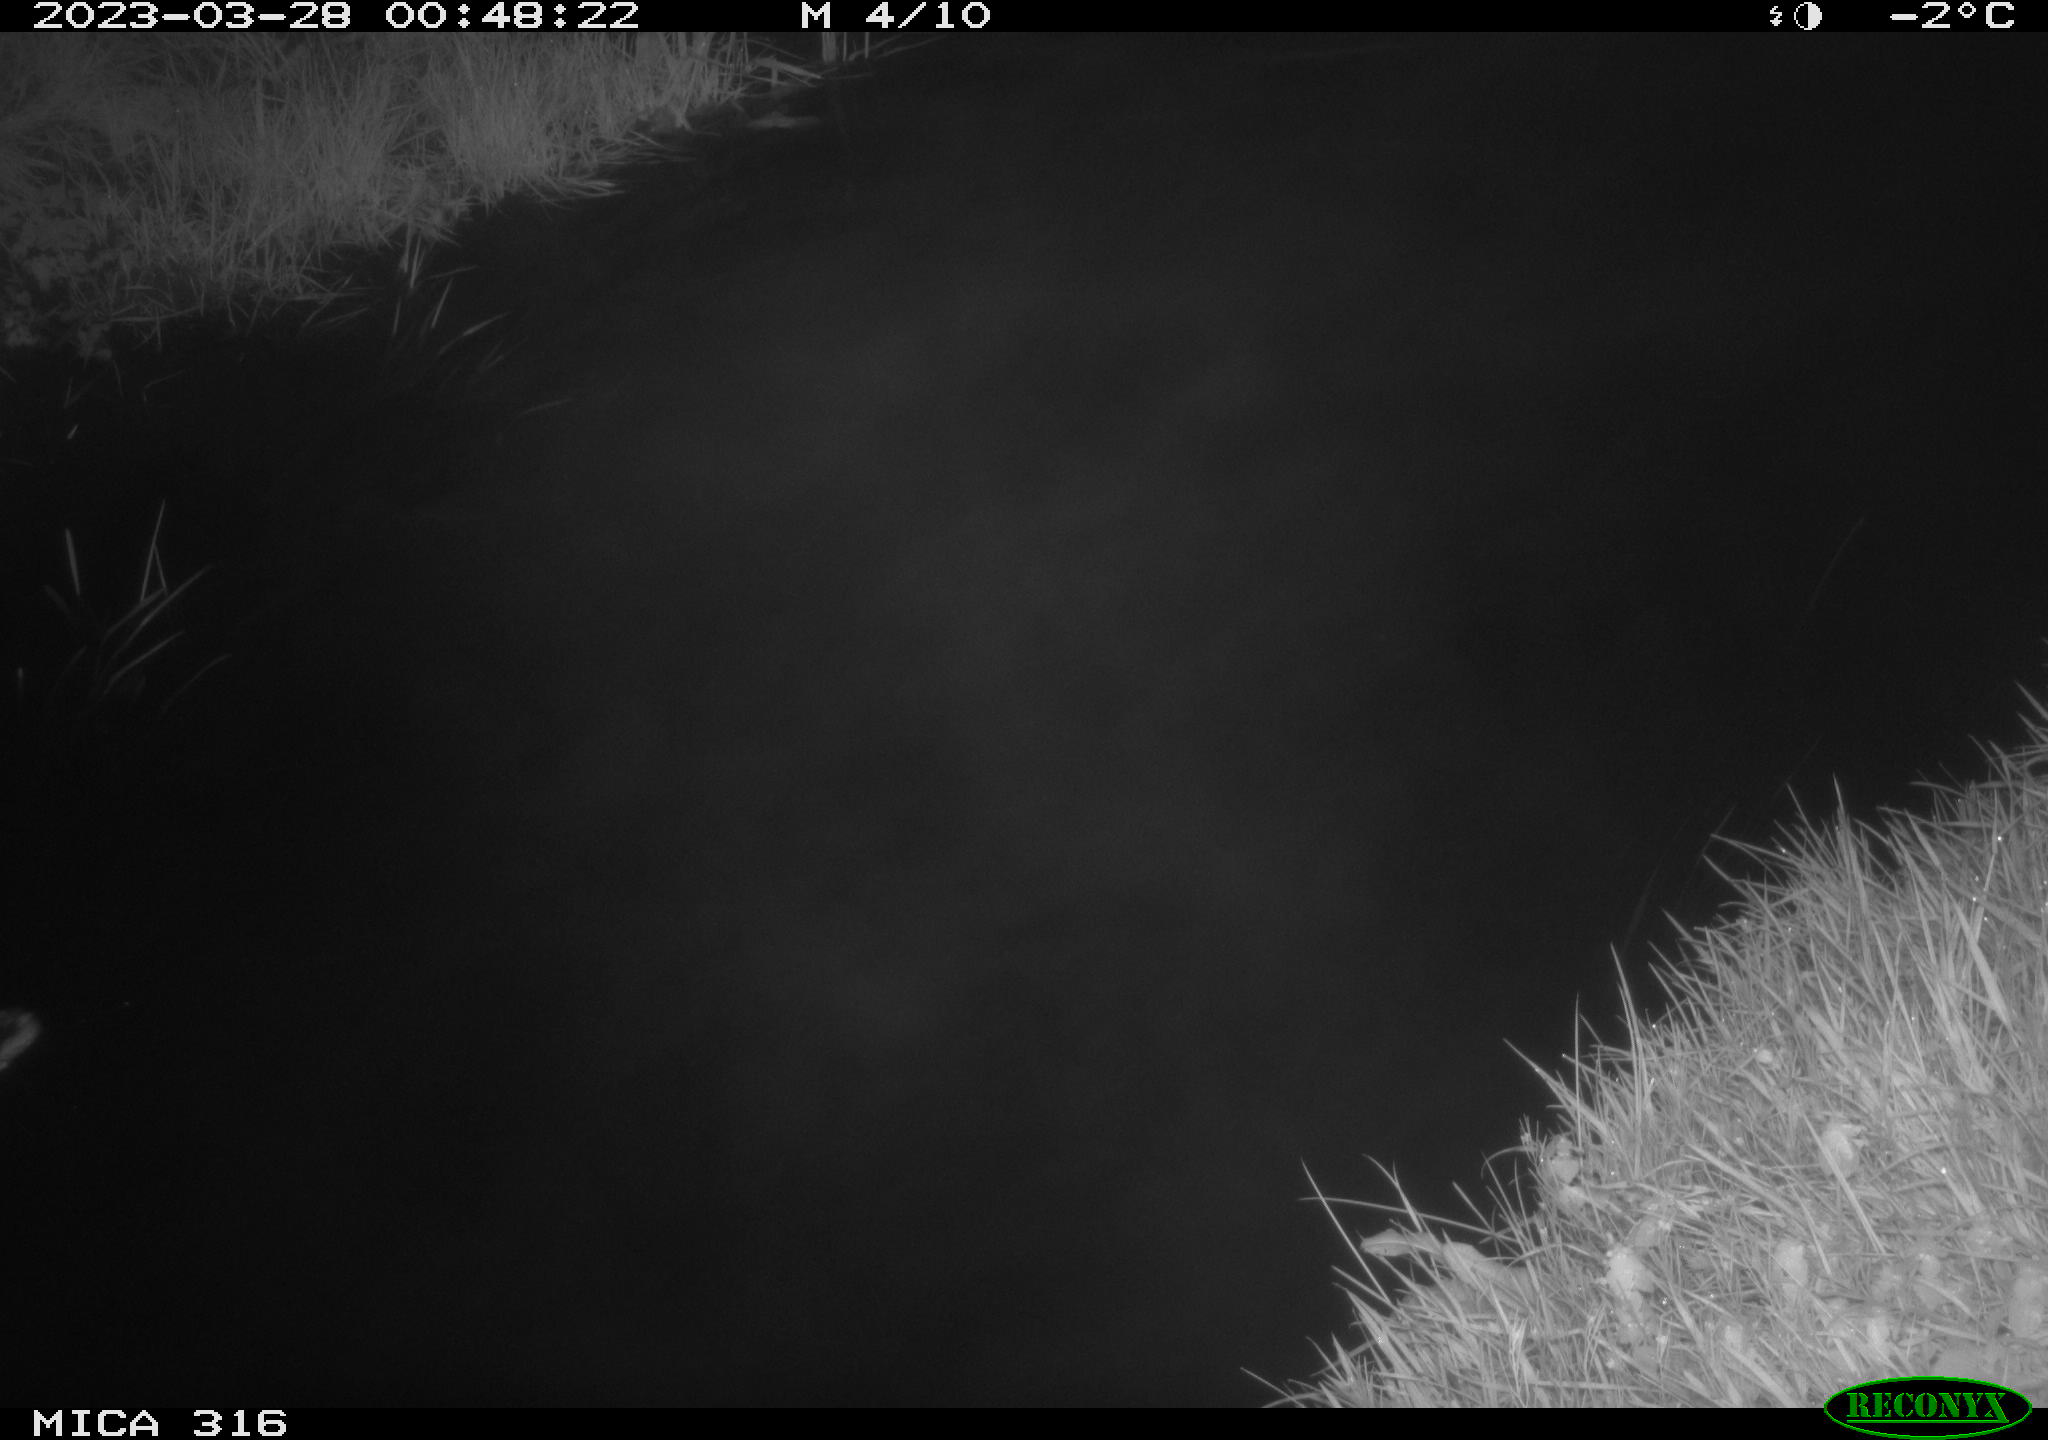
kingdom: Animalia
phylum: Chordata
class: Aves
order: Anseriformes
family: Anatidae
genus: Anas
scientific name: Anas
